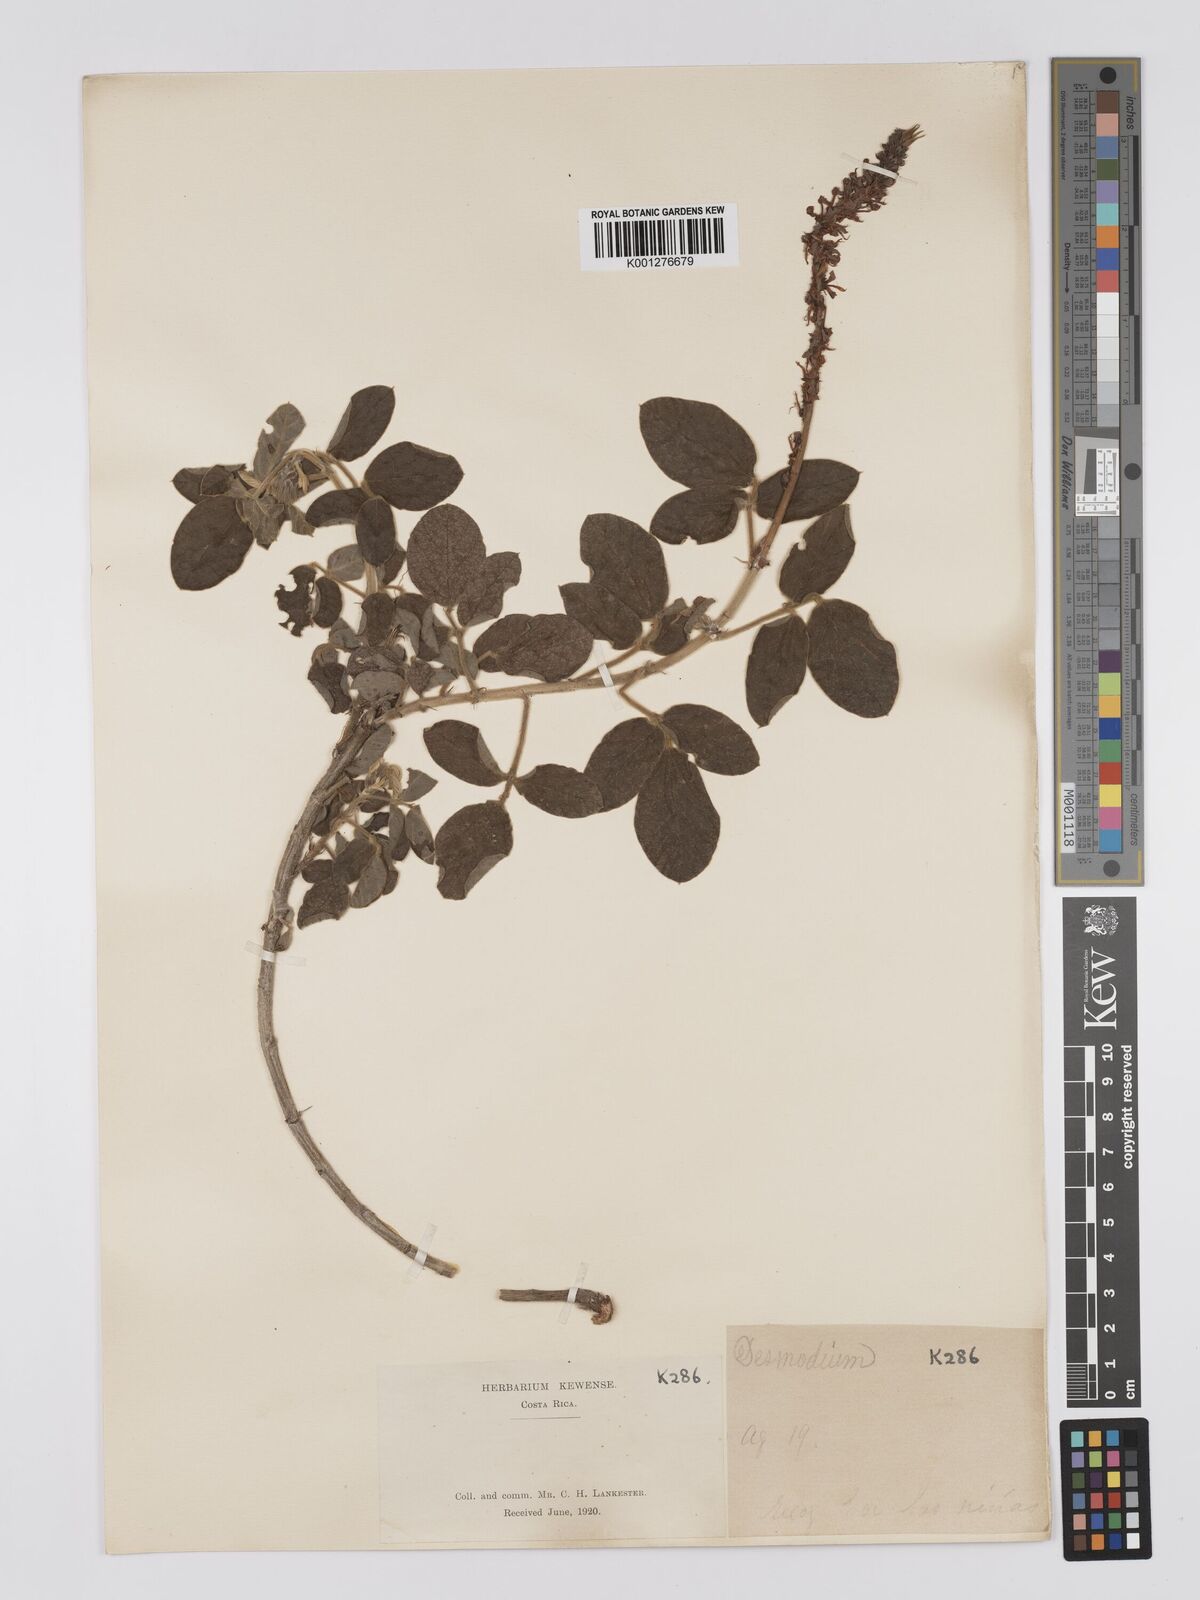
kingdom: Plantae
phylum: Tracheophyta
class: Magnoliopsida
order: Fabales
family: Fabaceae
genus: Desmodium
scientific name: Desmodium sericophyllum
